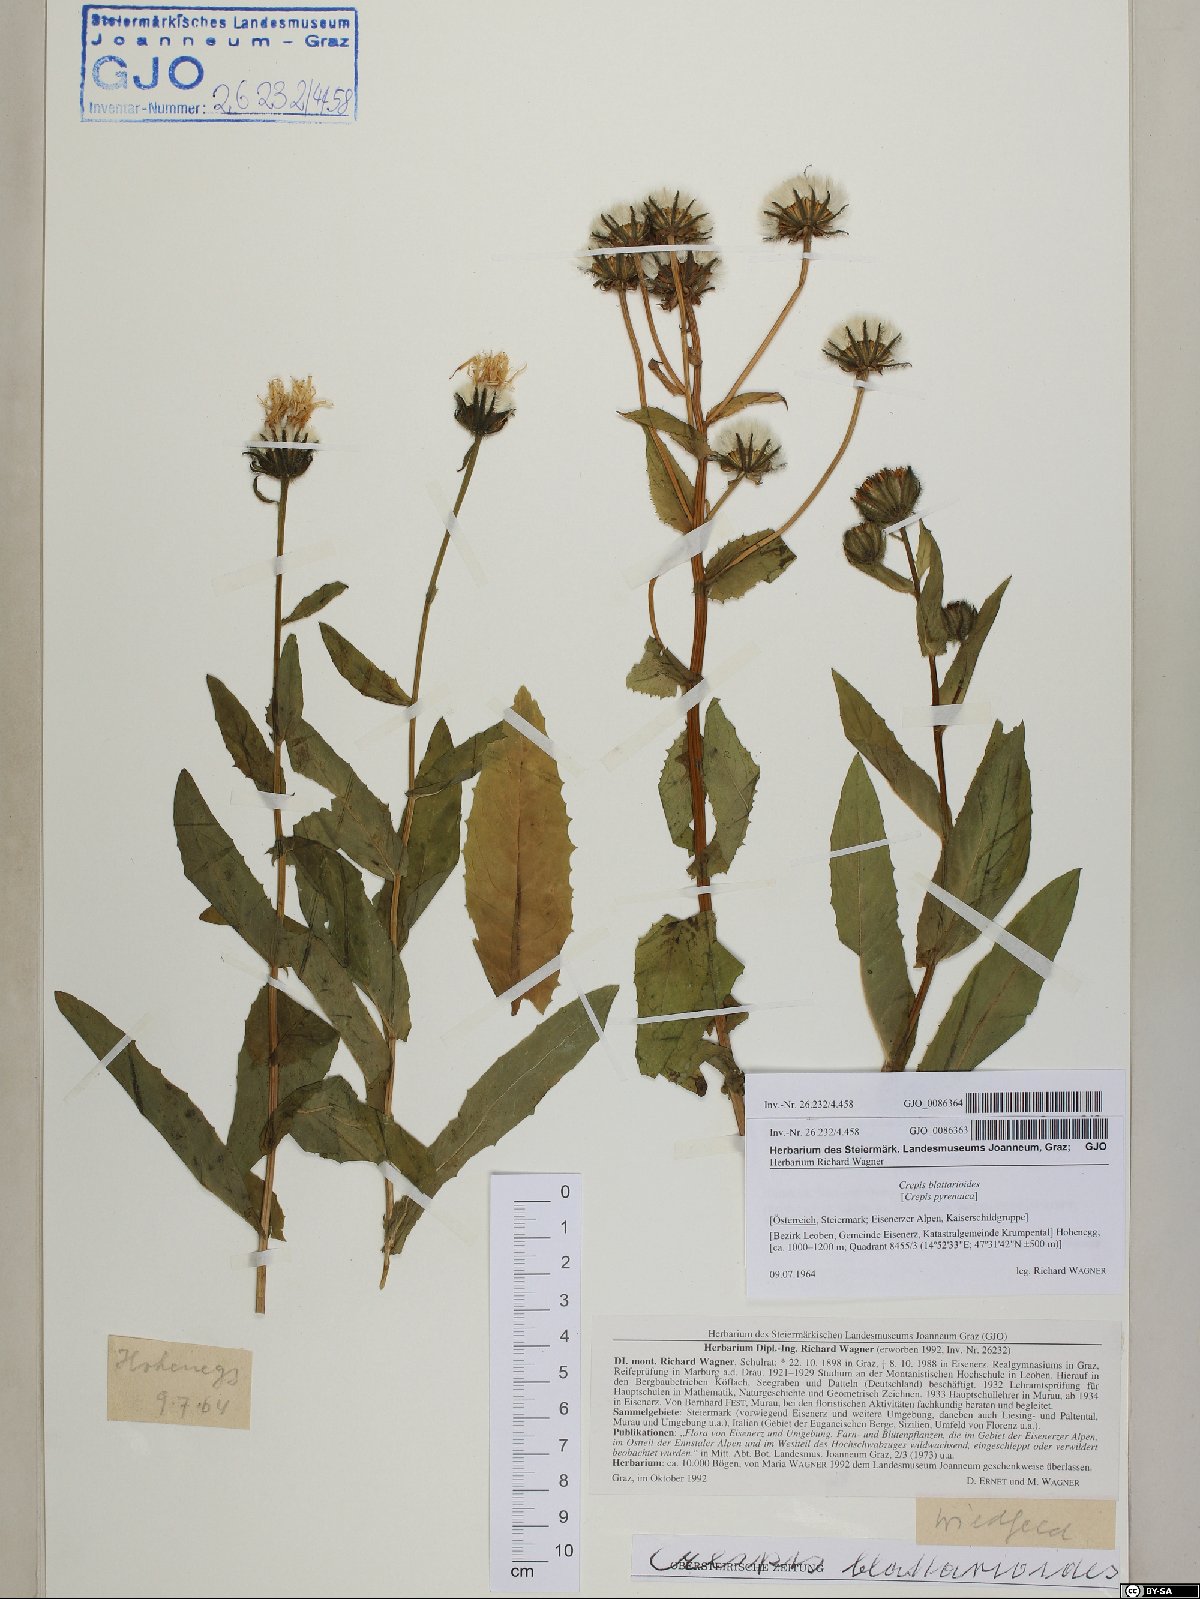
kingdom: Plantae
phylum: Tracheophyta
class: Magnoliopsida
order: Asterales
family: Asteraceae
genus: Crepis
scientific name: Crepis blattarioides
